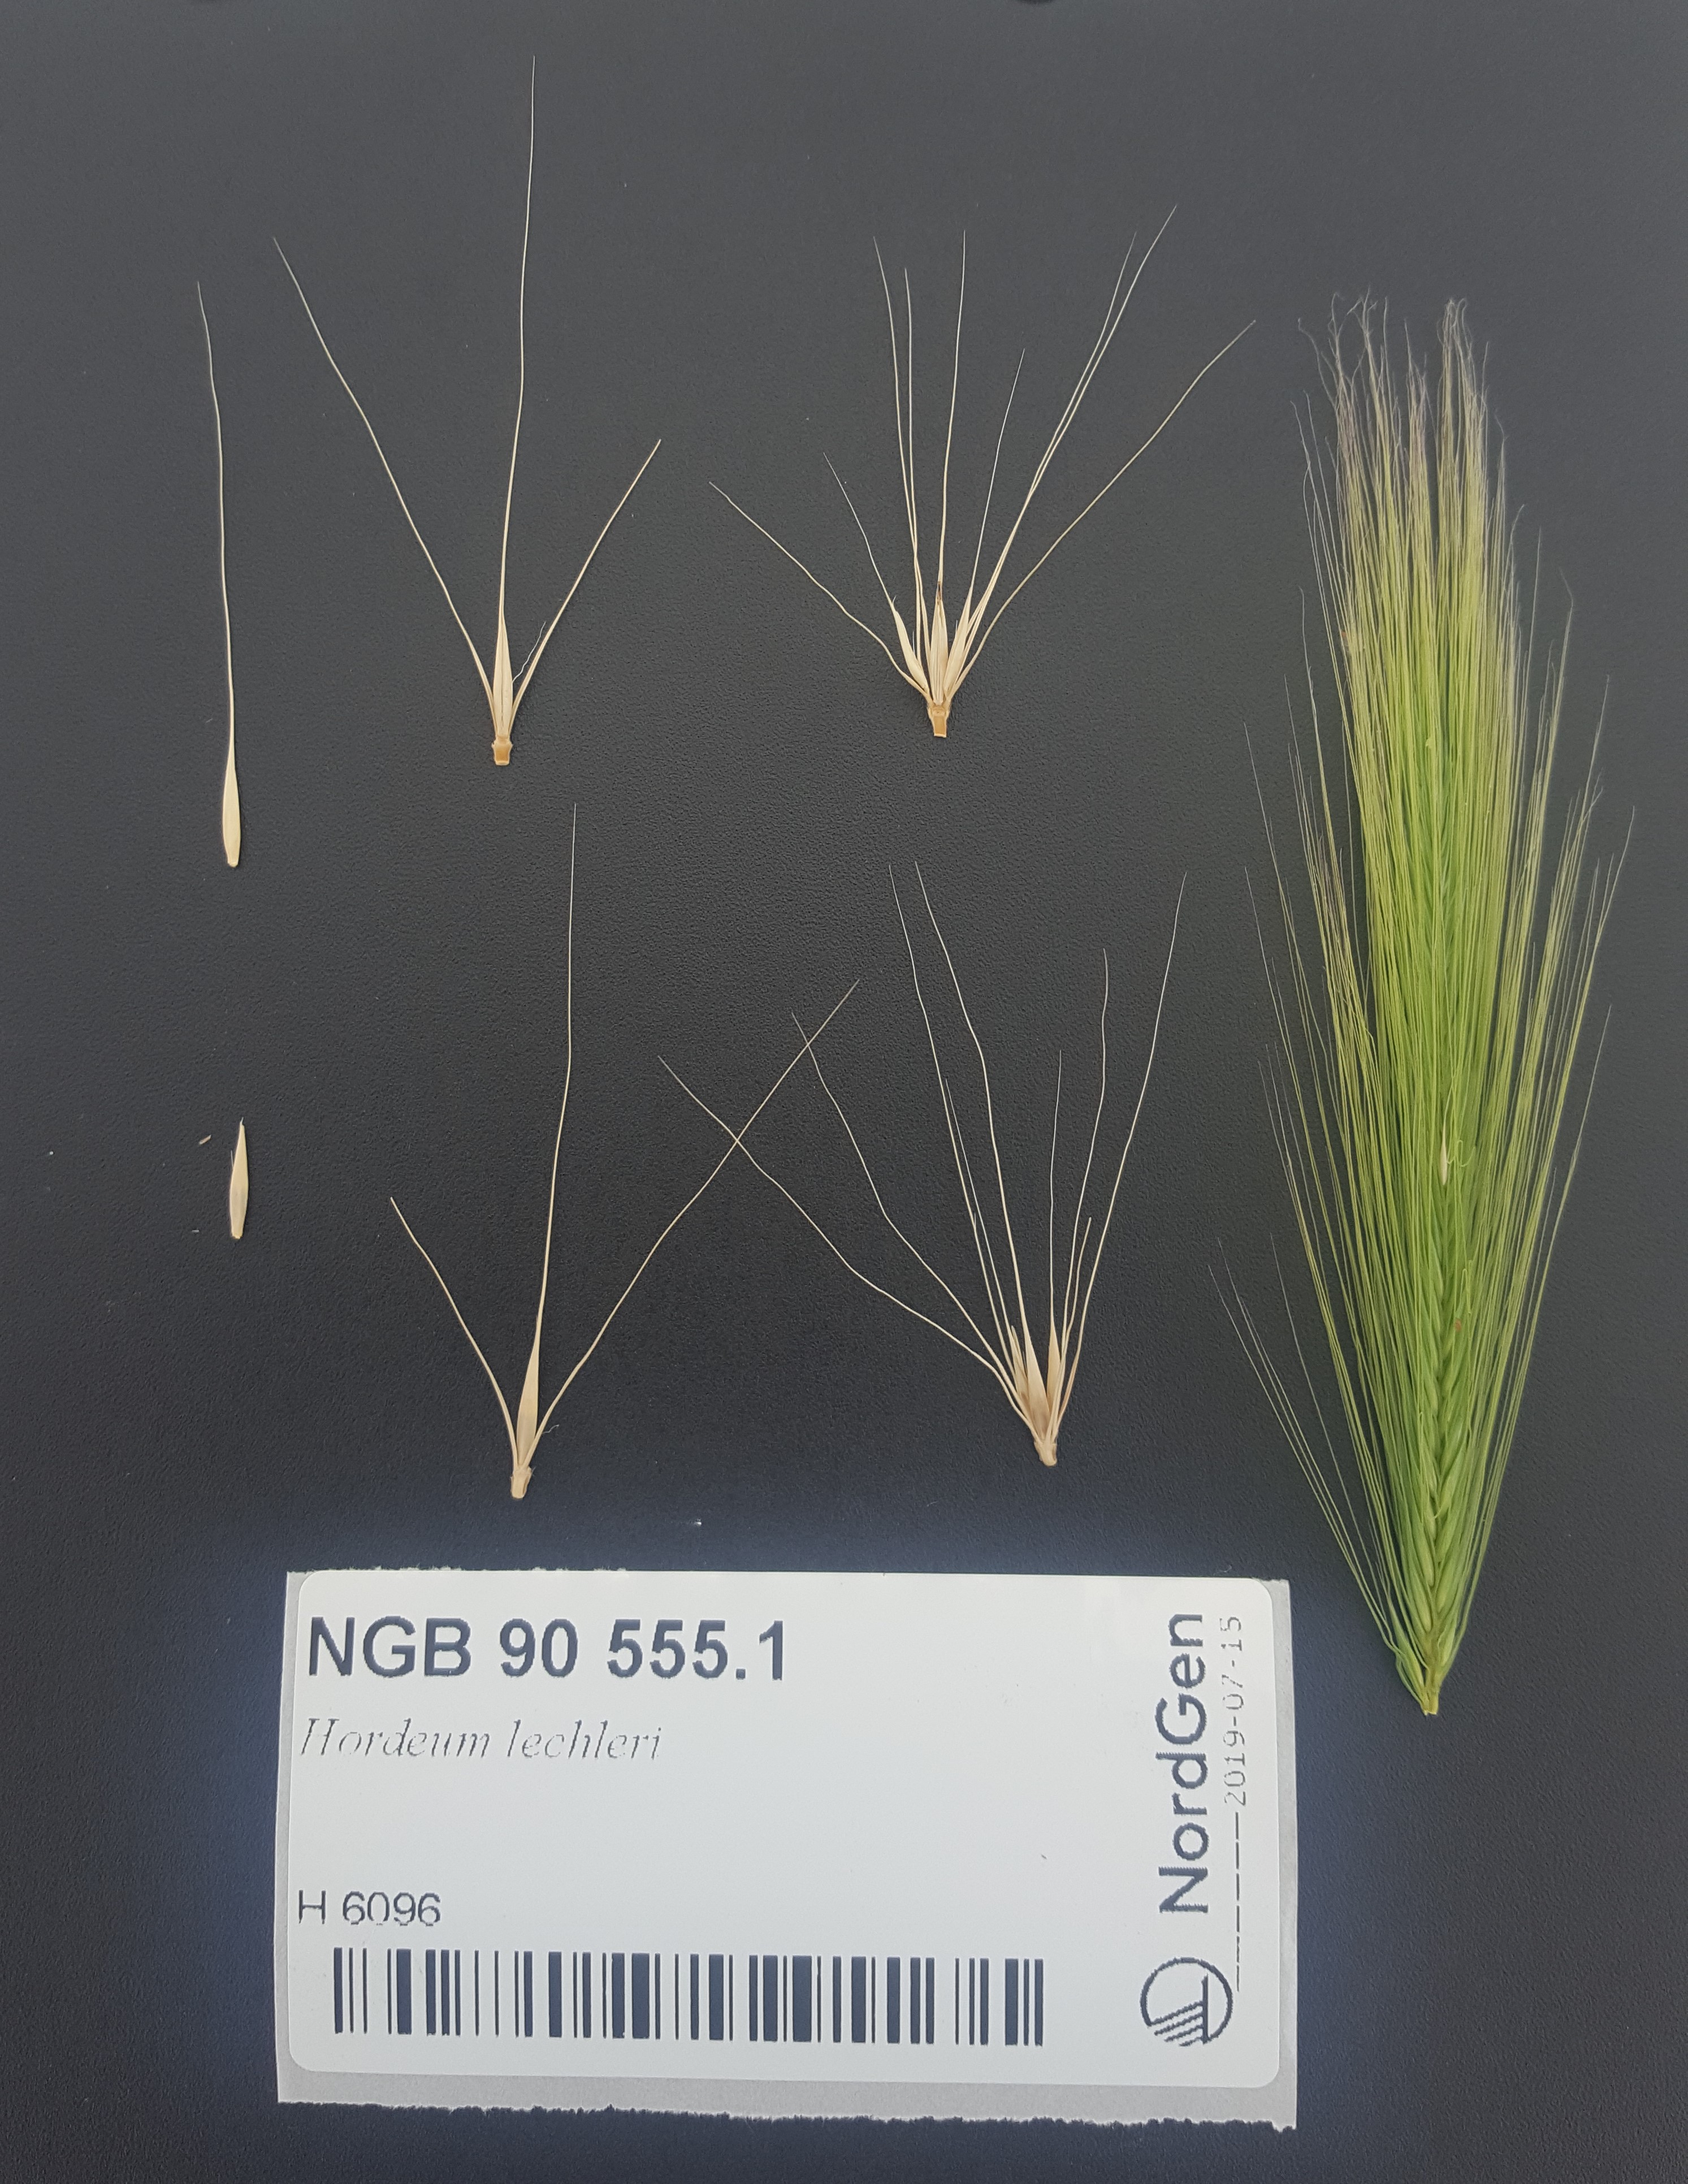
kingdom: Plantae
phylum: Tracheophyta
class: Liliopsida
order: Poales
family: Poaceae
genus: Hordeum
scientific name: Hordeum lechleri
